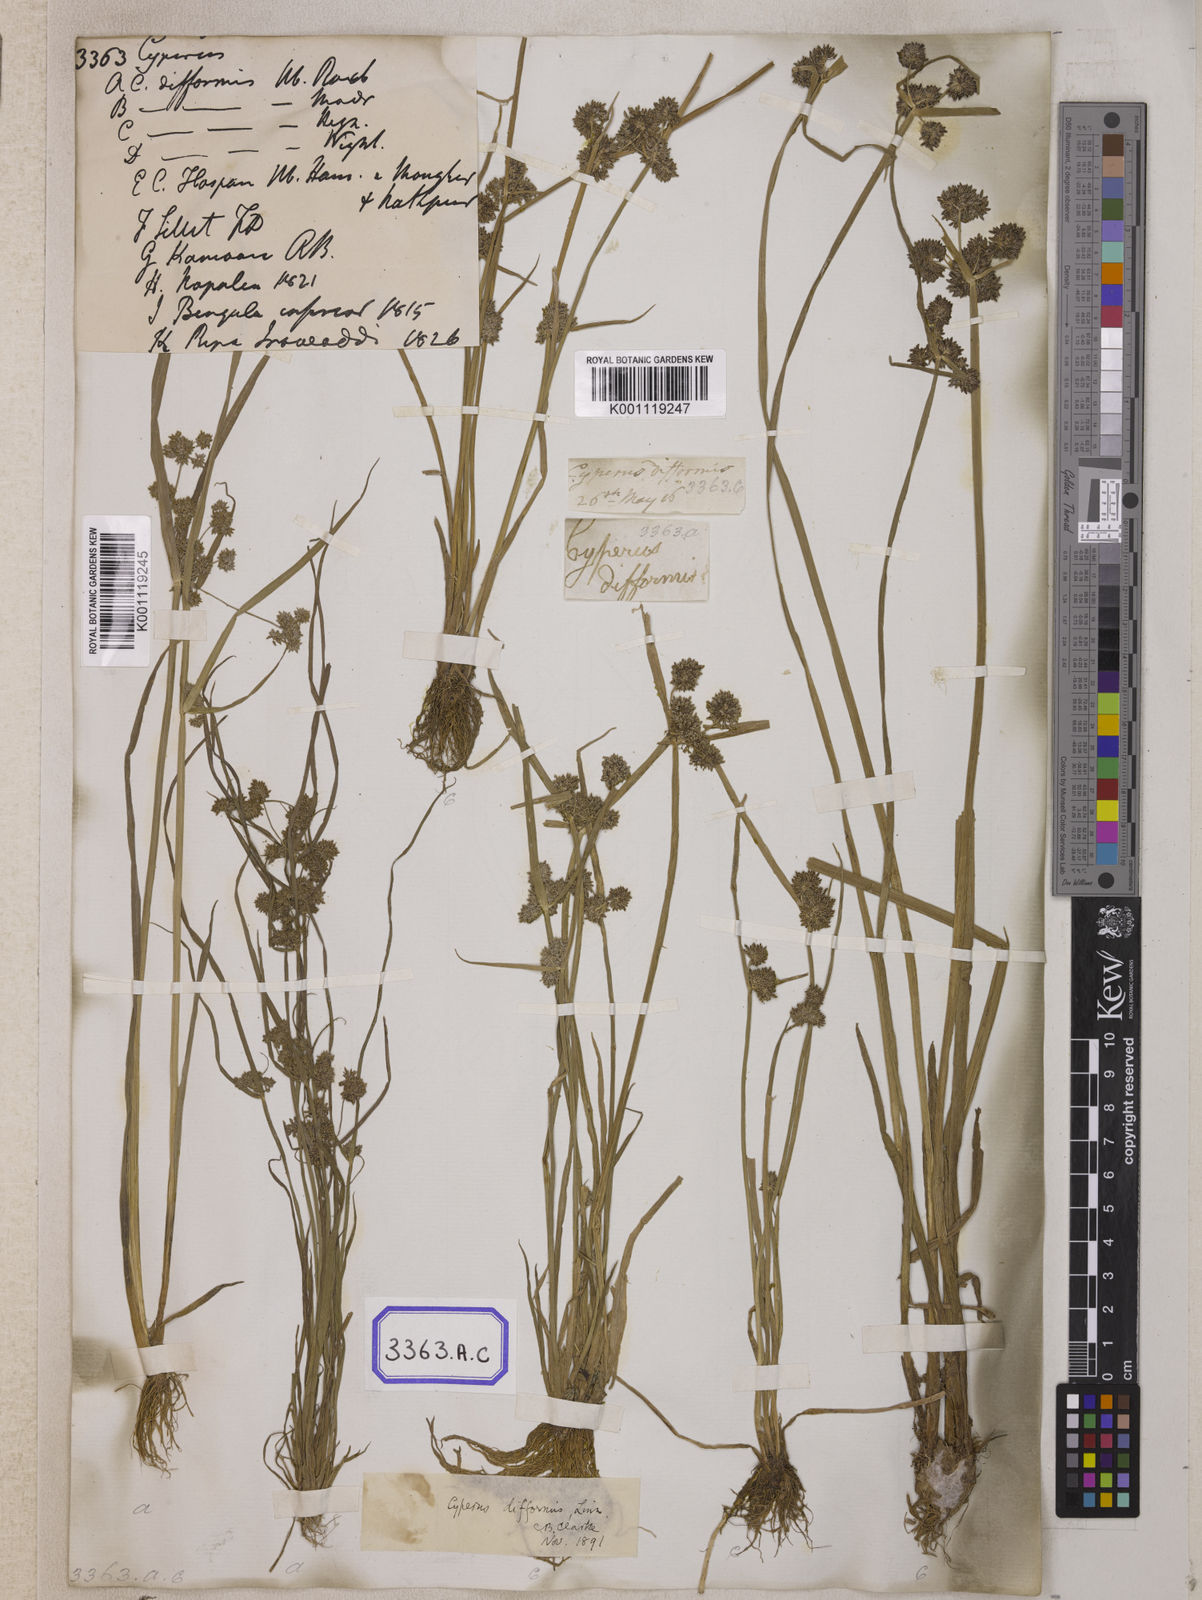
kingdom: Plantae
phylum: Tracheophyta
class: Liliopsida
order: Poales
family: Cyperaceae
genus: Cyperus
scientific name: Cyperus
